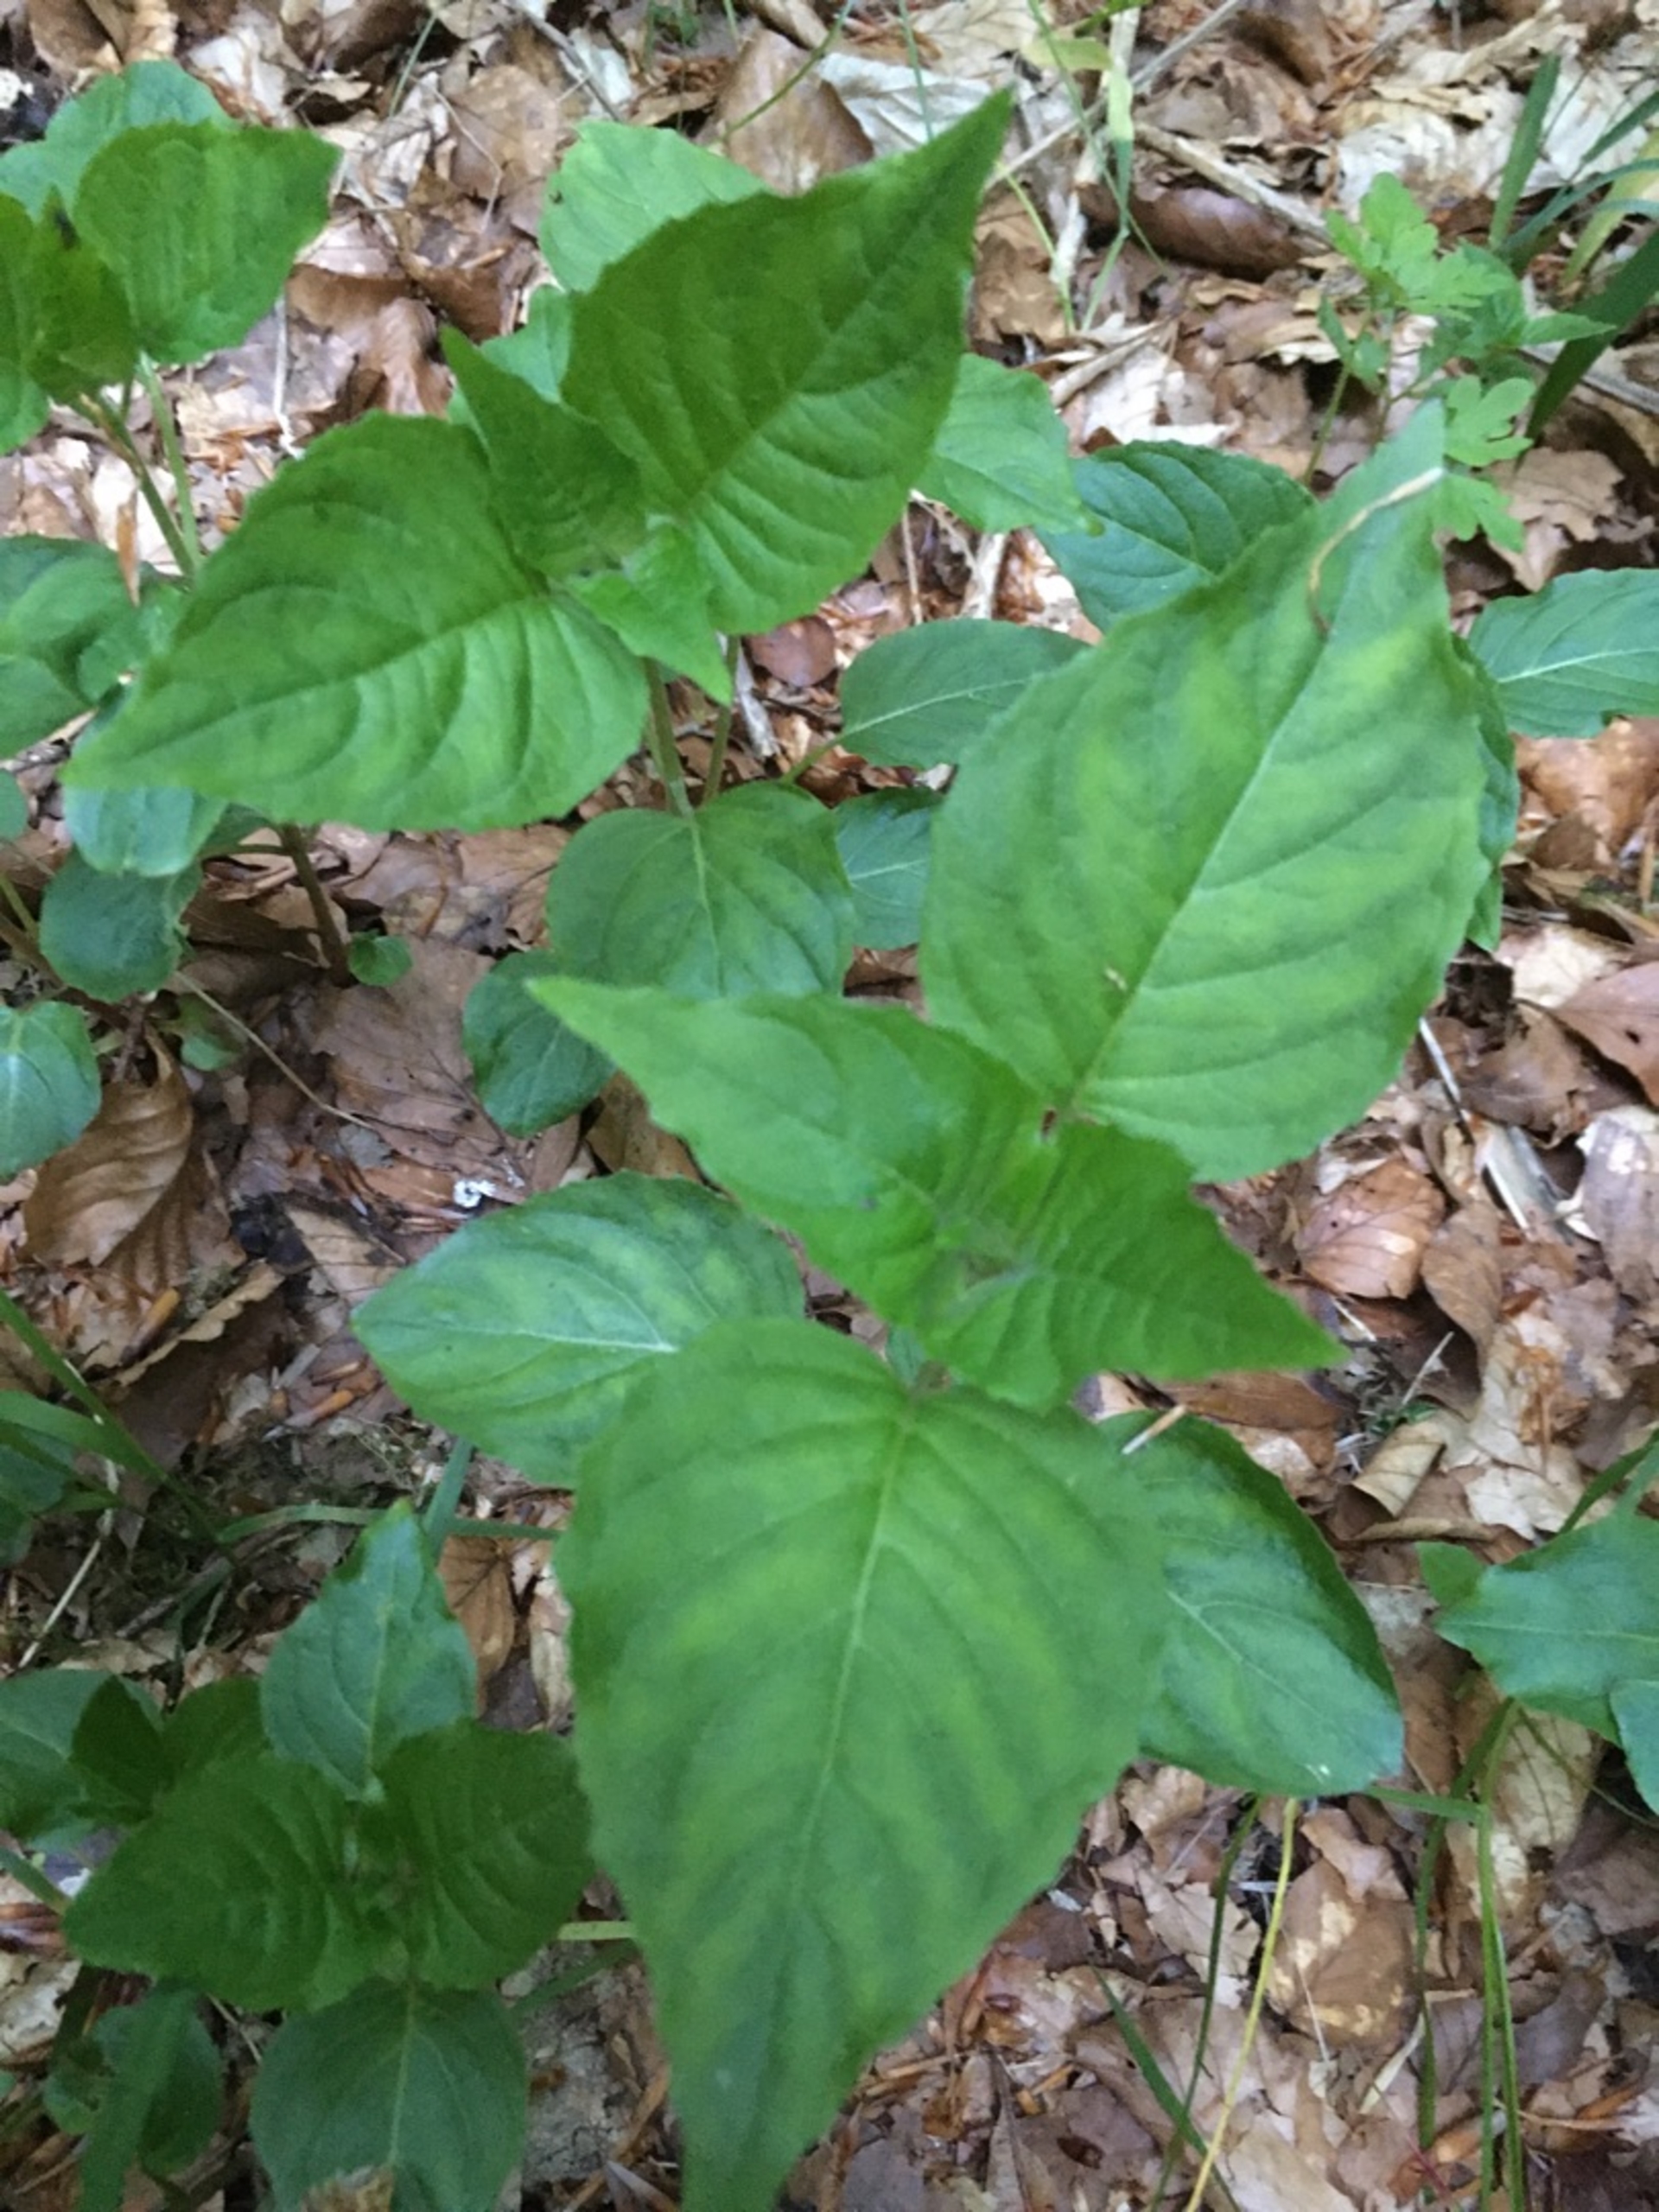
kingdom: Plantae
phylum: Tracheophyta
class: Magnoliopsida
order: Myrtales
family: Onagraceae
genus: Circaea
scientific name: Circaea lutetiana
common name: Dunet steffensurt
